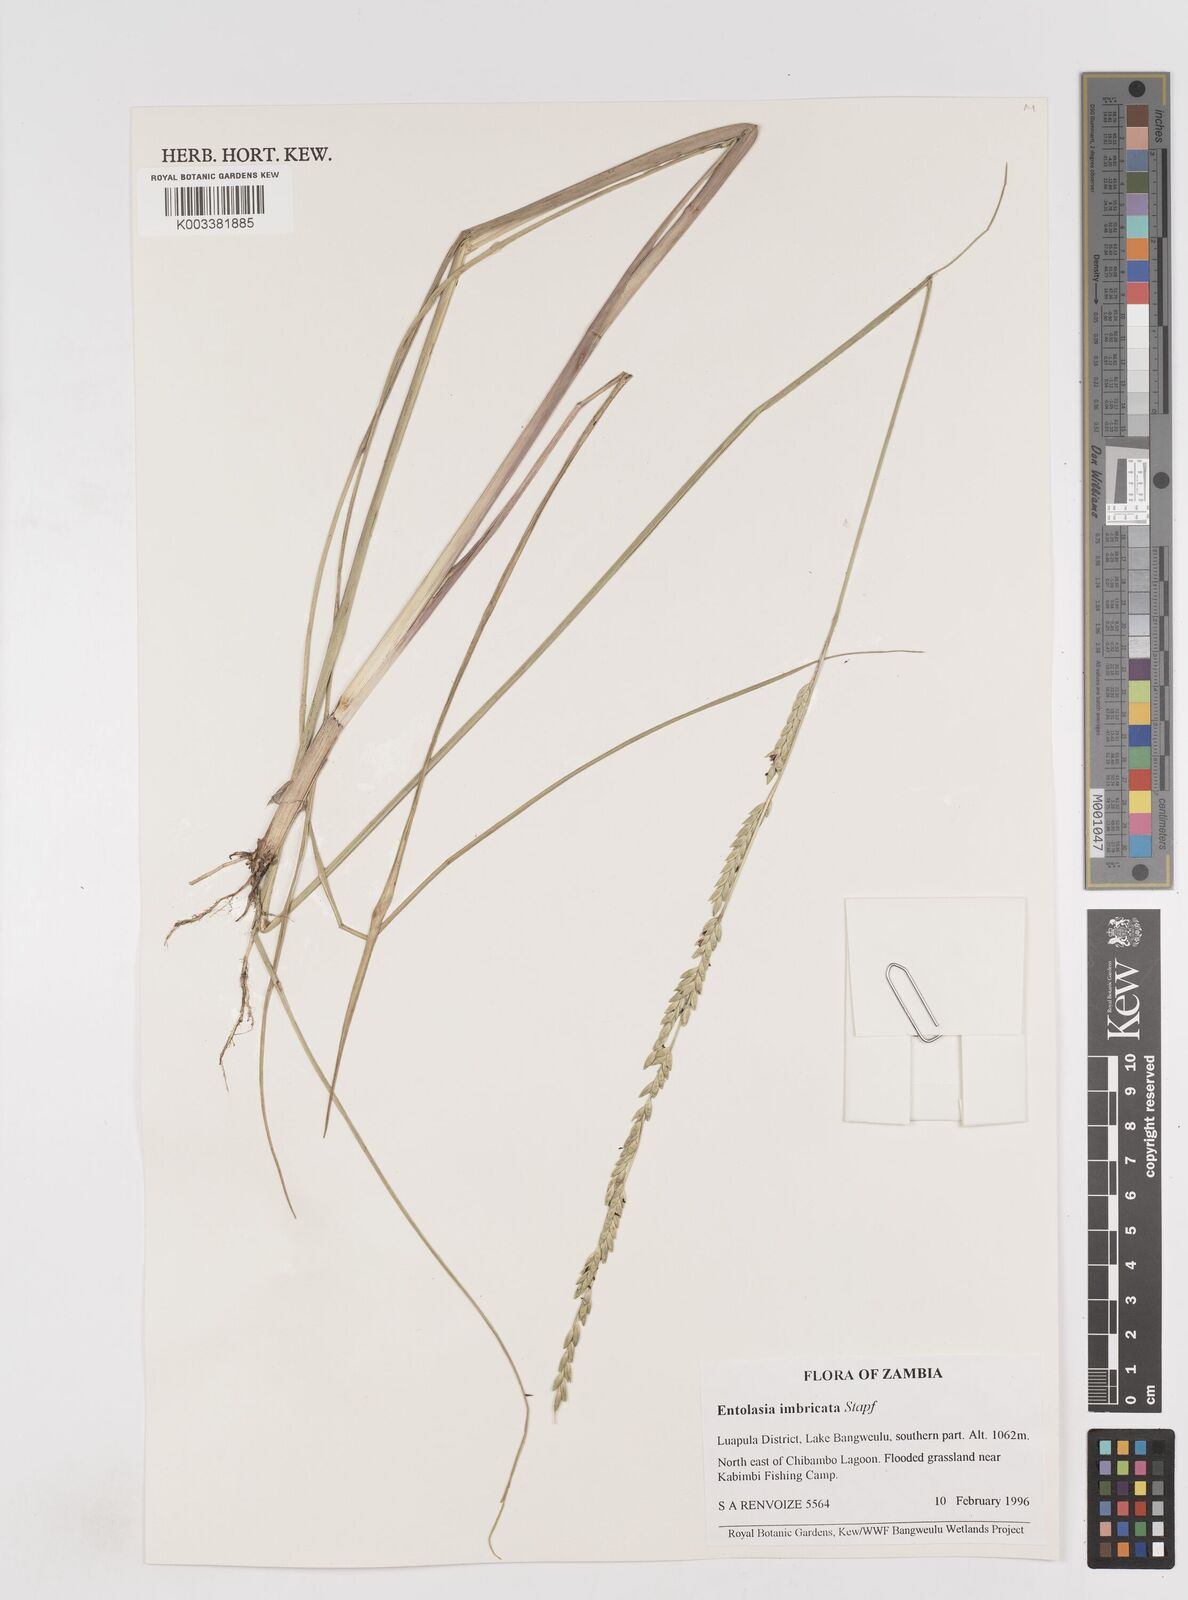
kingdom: Plantae
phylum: Tracheophyta
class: Liliopsida
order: Poales
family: Poaceae
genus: Entolasia
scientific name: Entolasia imbricata
